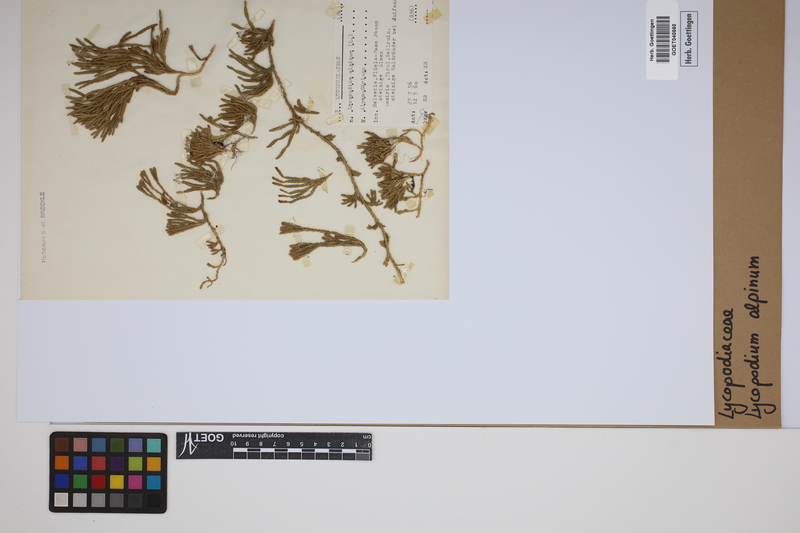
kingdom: Plantae
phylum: Tracheophyta
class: Lycopodiopsida
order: Lycopodiales
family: Lycopodiaceae
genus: Diphasiastrum
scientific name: Diphasiastrum alpinum
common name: Alpine clubmoss
